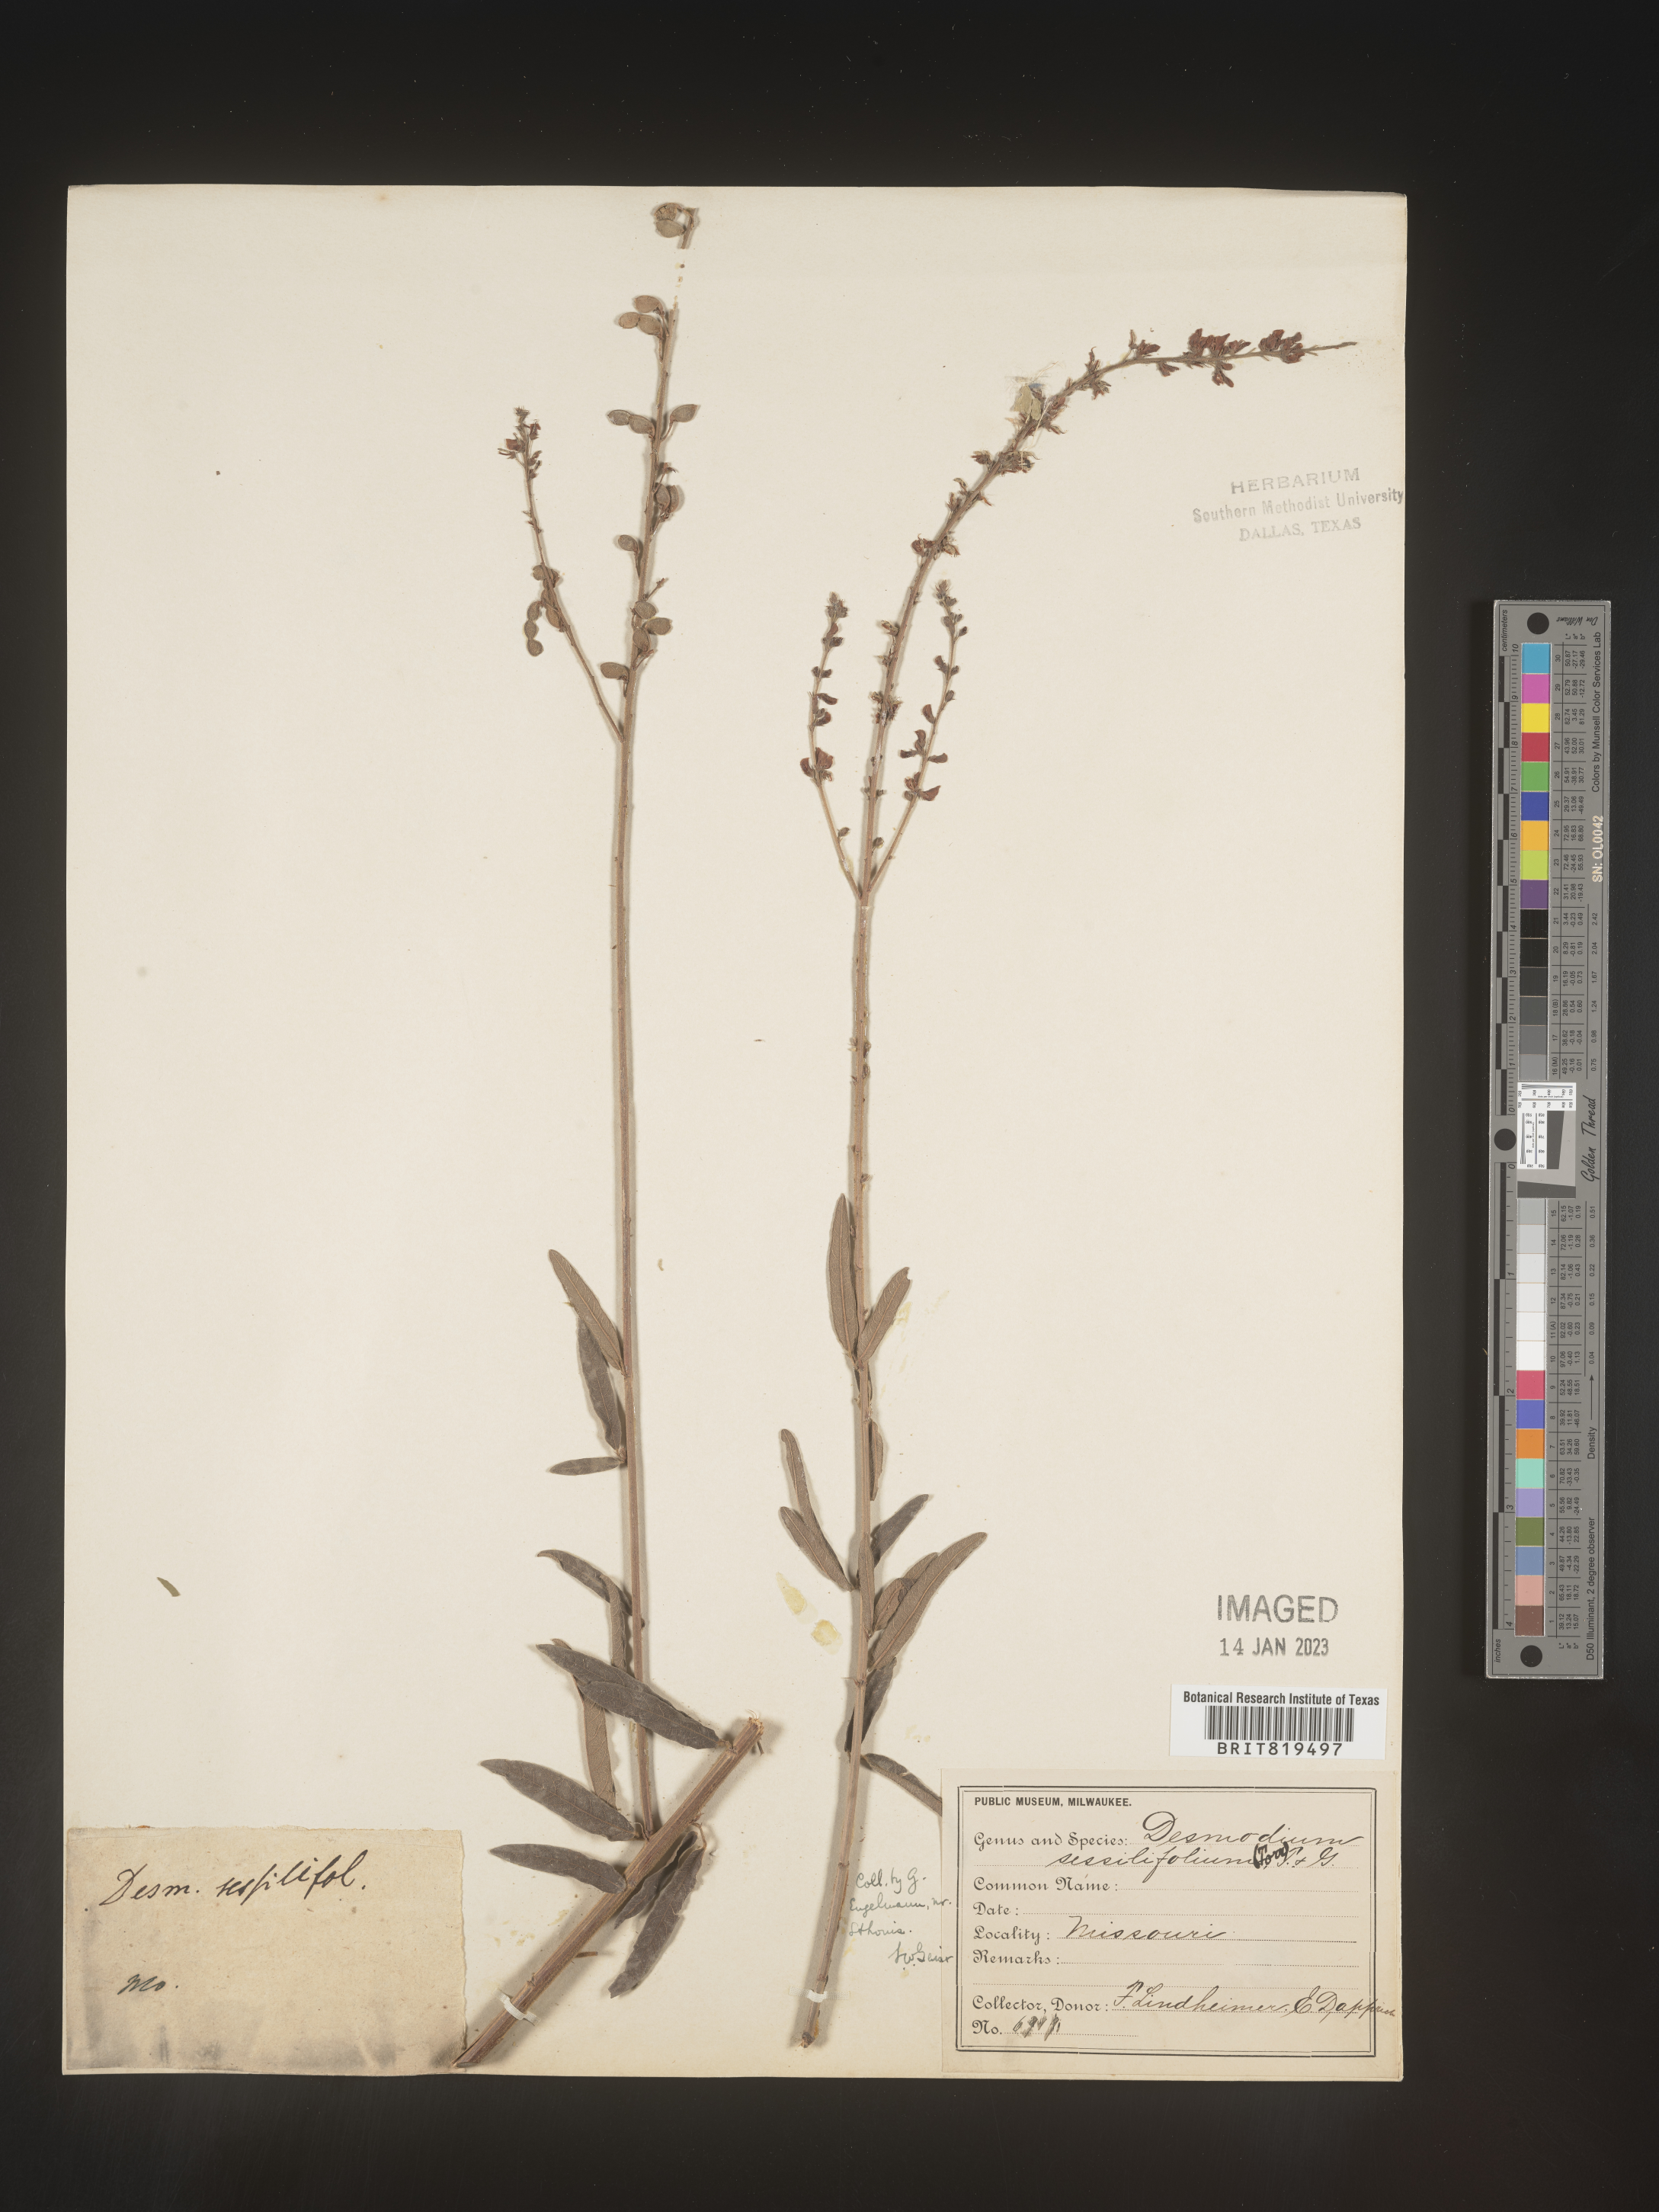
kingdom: Plantae
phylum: Tracheophyta
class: Magnoliopsida
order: Fabales
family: Fabaceae
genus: Desmodium
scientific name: Desmodium sessilifolium
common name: Sessile tick-clover
